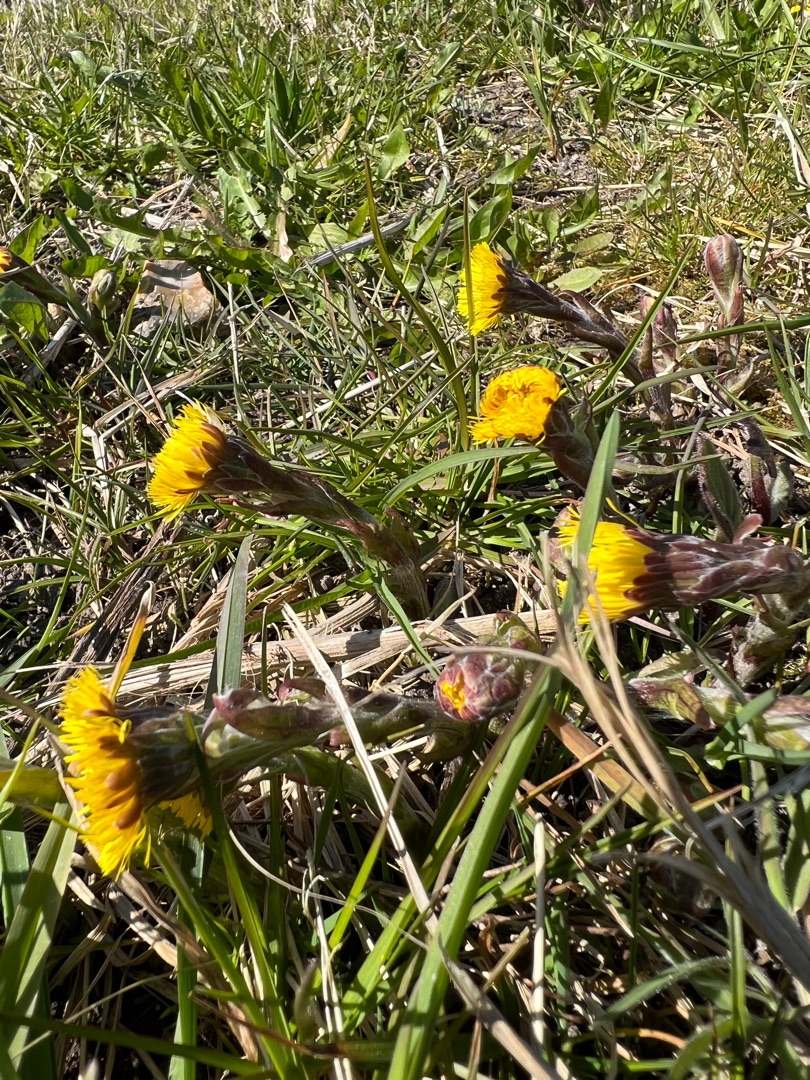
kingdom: Plantae
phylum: Tracheophyta
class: Magnoliopsida
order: Asterales
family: Asteraceae
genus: Tussilago
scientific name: Tussilago farfara
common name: Følfod
